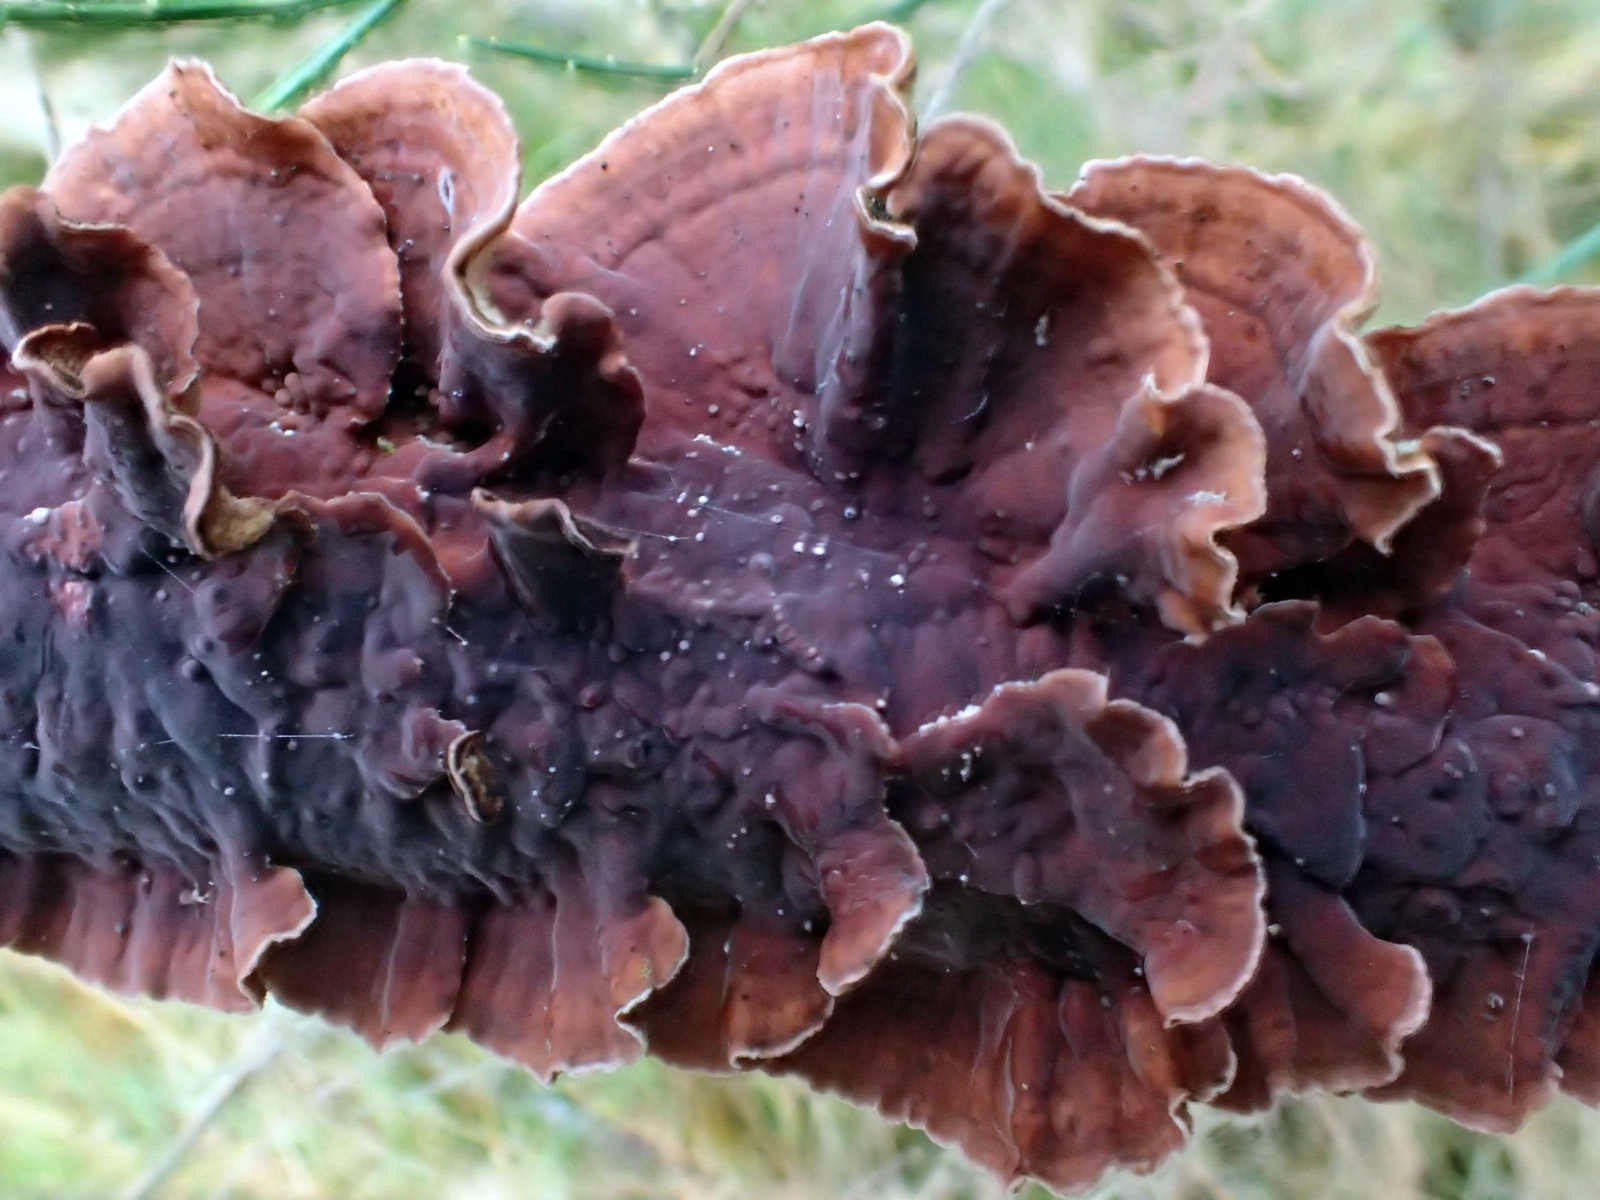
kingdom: Fungi
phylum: Basidiomycota
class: Agaricomycetes
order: Agaricales
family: Cyphellaceae
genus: Chondrostereum
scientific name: Chondrostereum purpureum
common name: purpurlædersvamp
